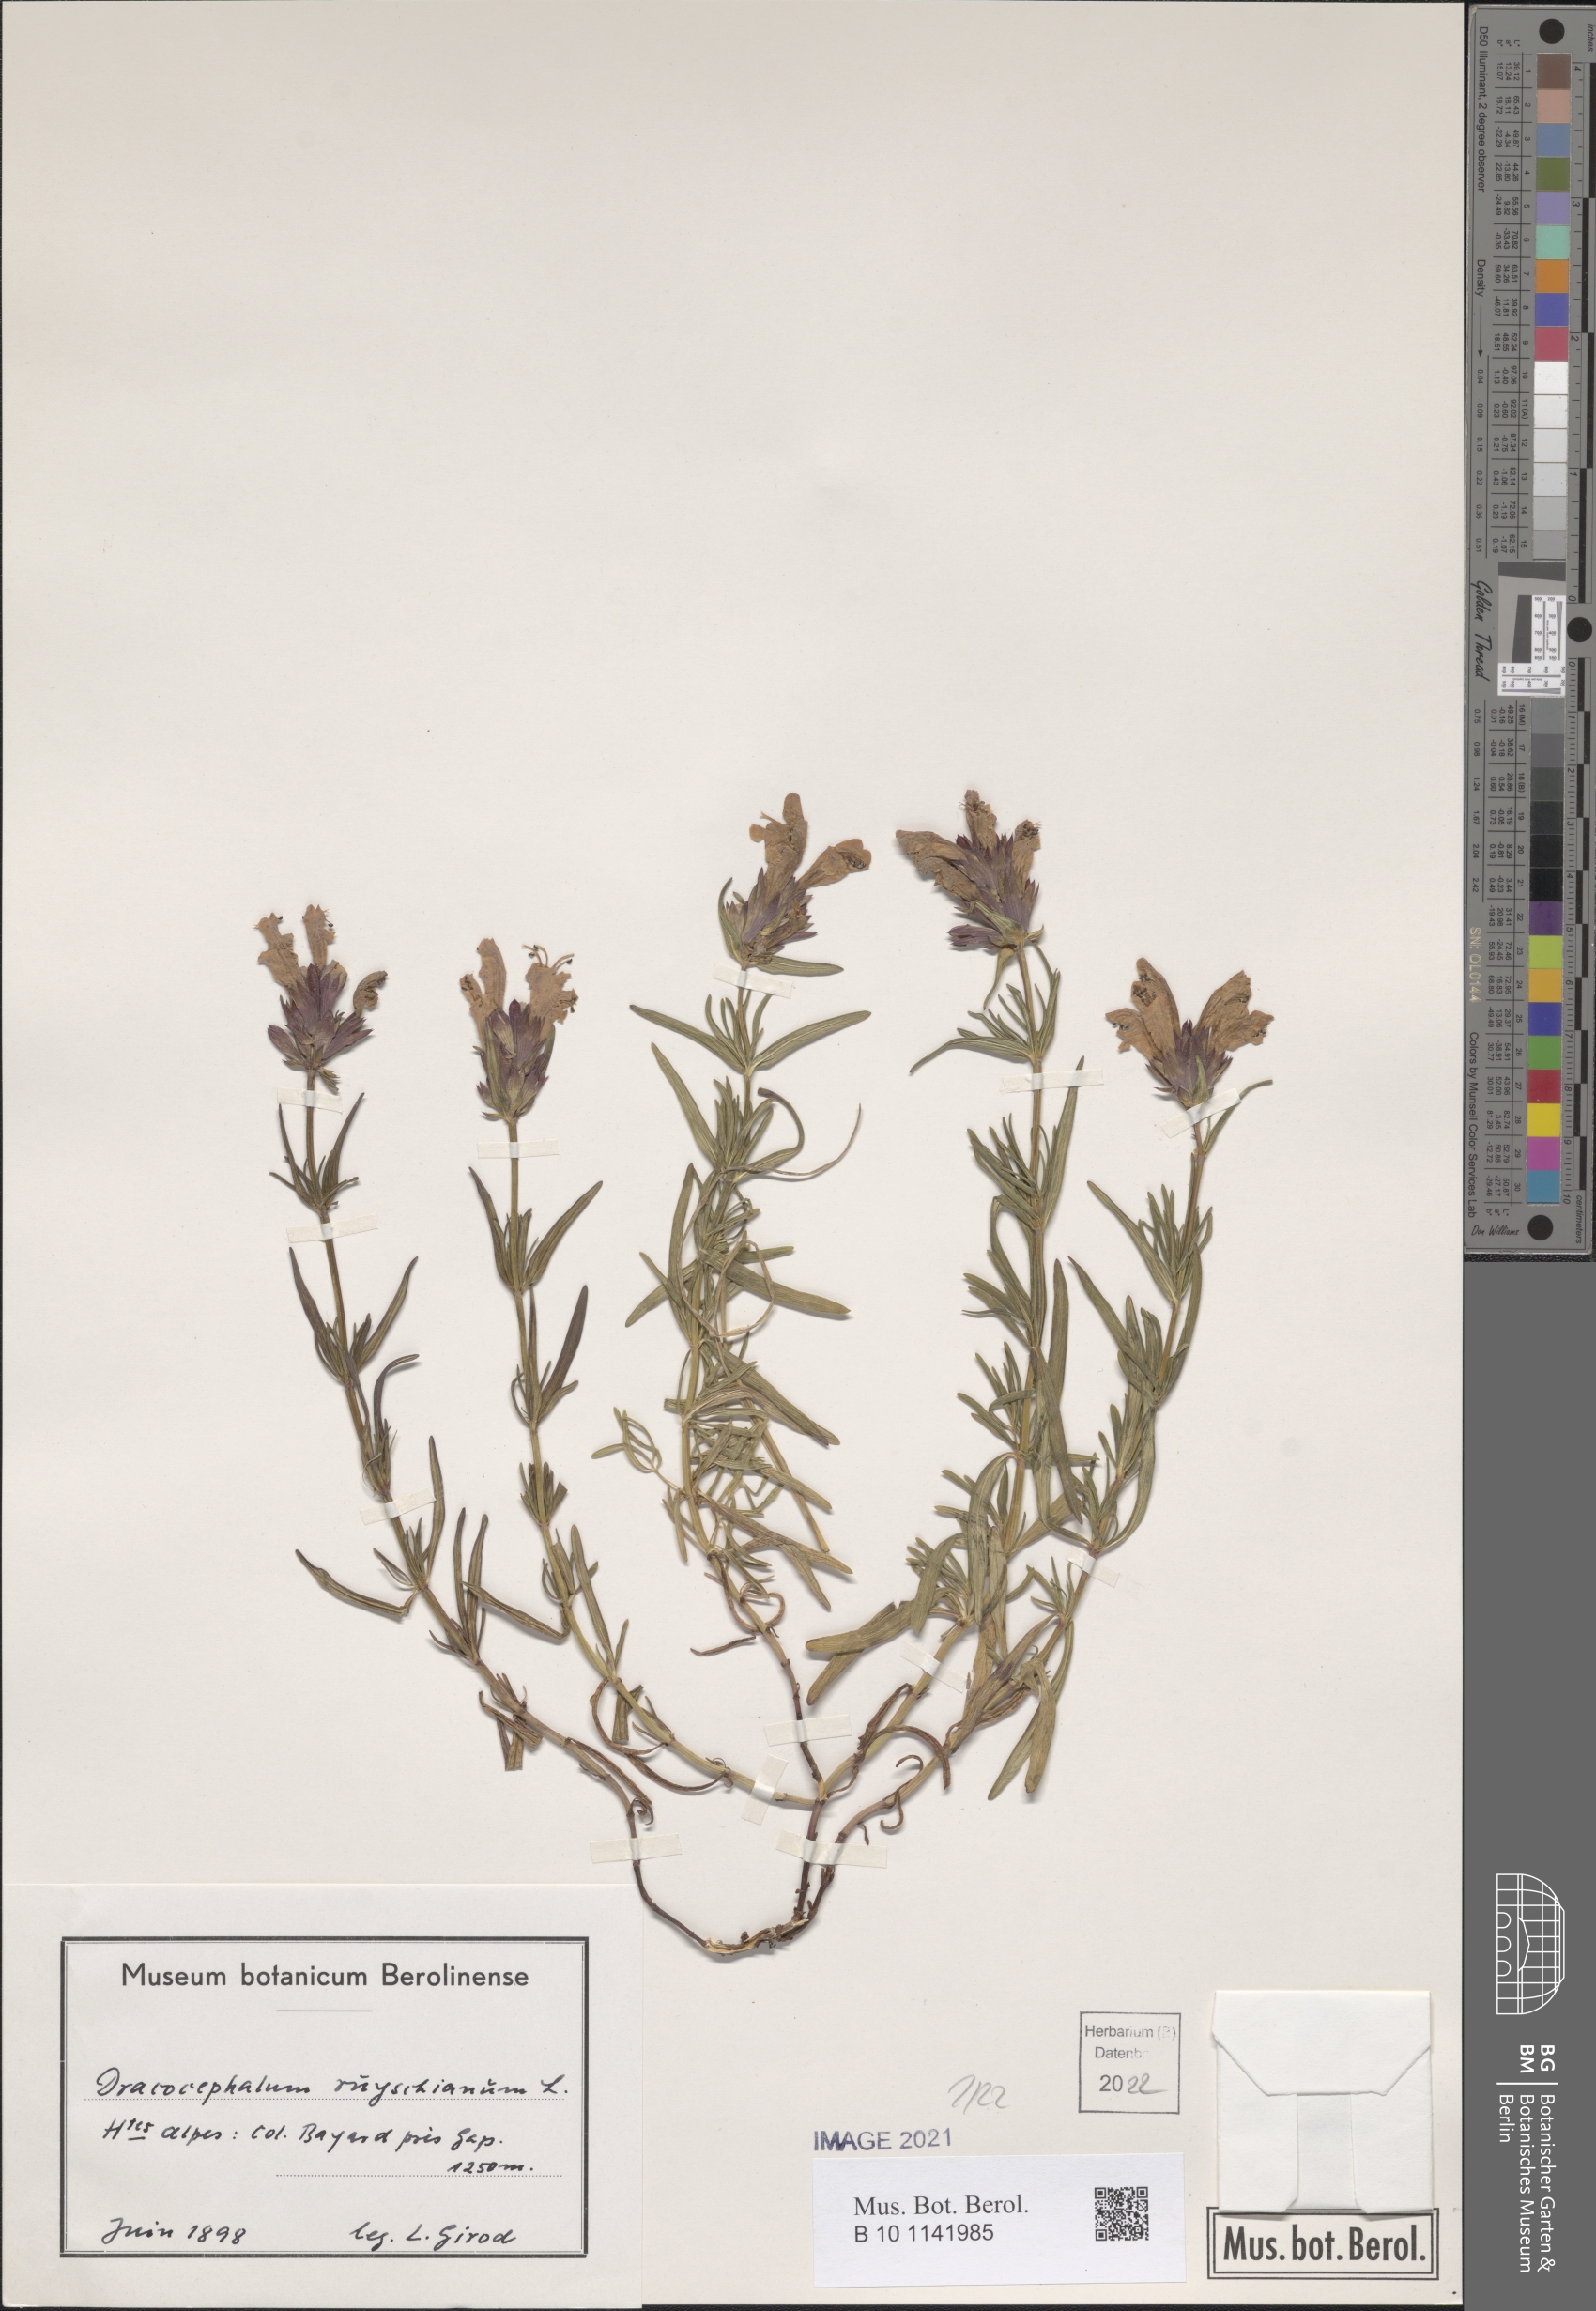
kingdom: Plantae
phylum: Tracheophyta
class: Magnoliopsida
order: Lamiales
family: Lamiaceae
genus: Dracocephalum
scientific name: Dracocephalum ruyschiana
